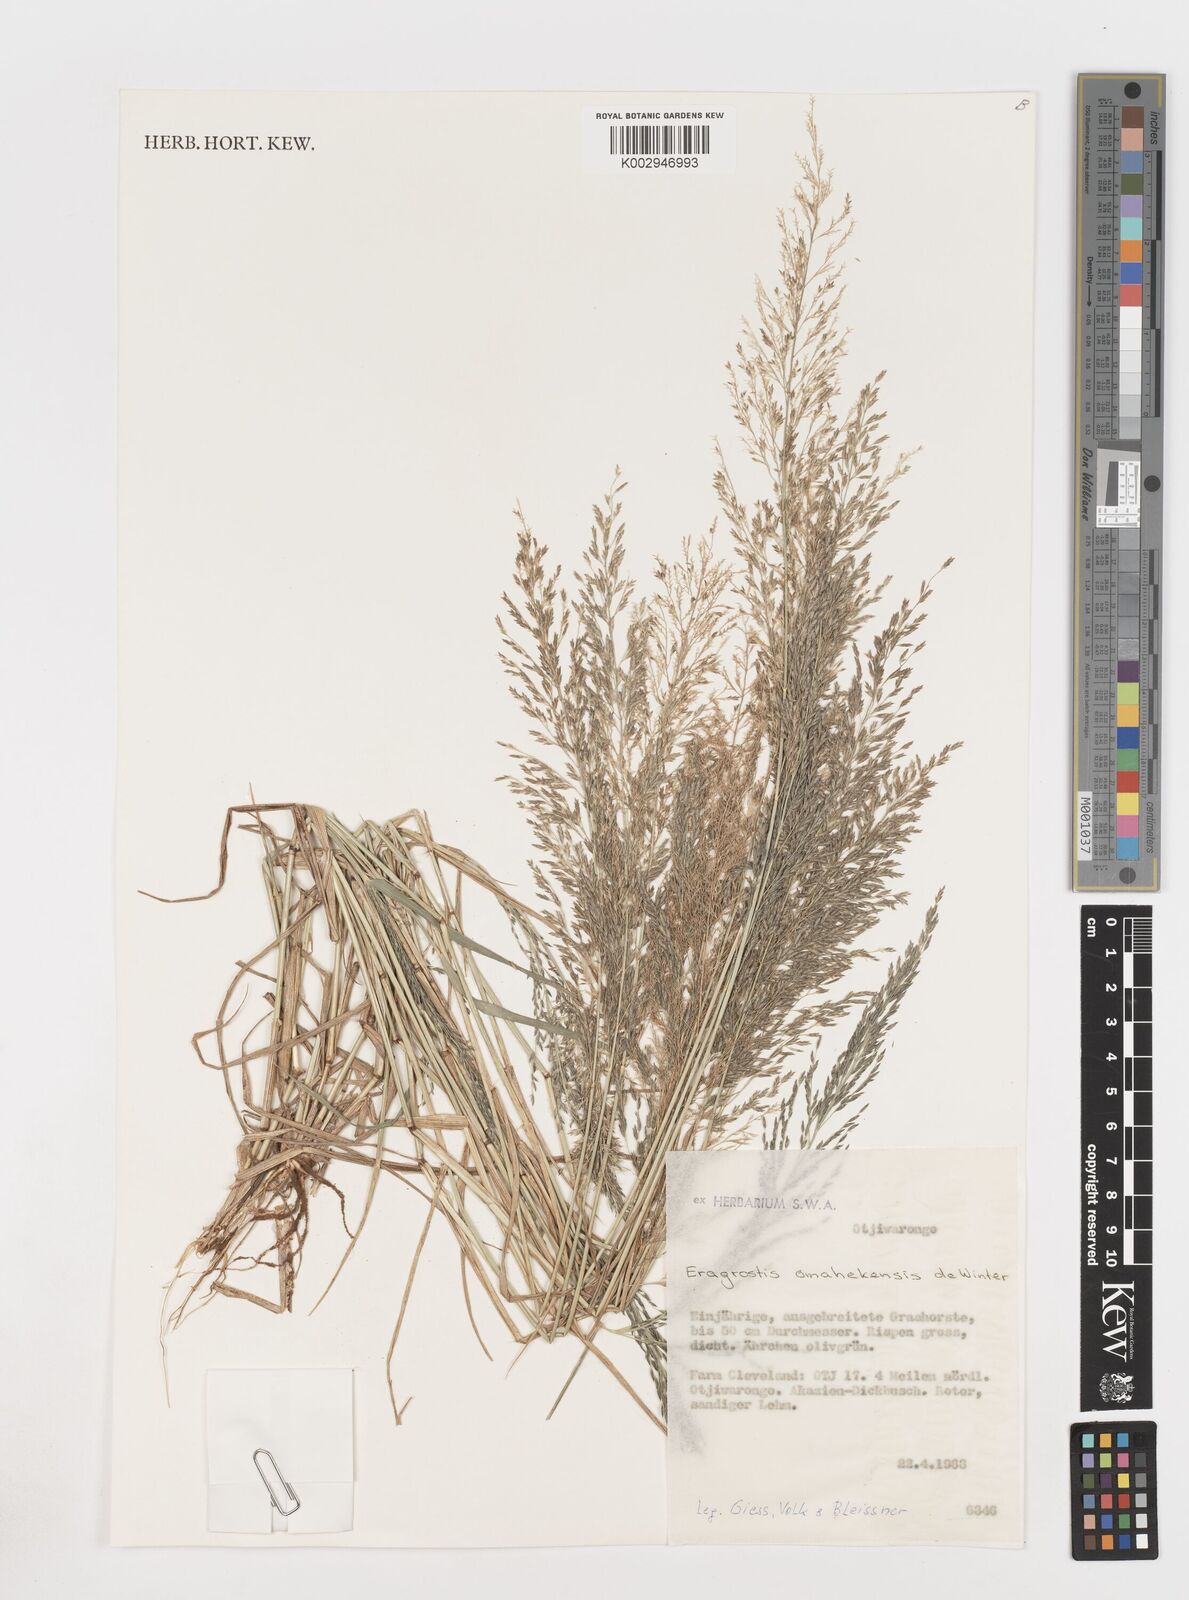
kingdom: Plantae
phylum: Tracheophyta
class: Liliopsida
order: Poales
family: Poaceae
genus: Eragrostis
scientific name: Eragrostis omahekensis
